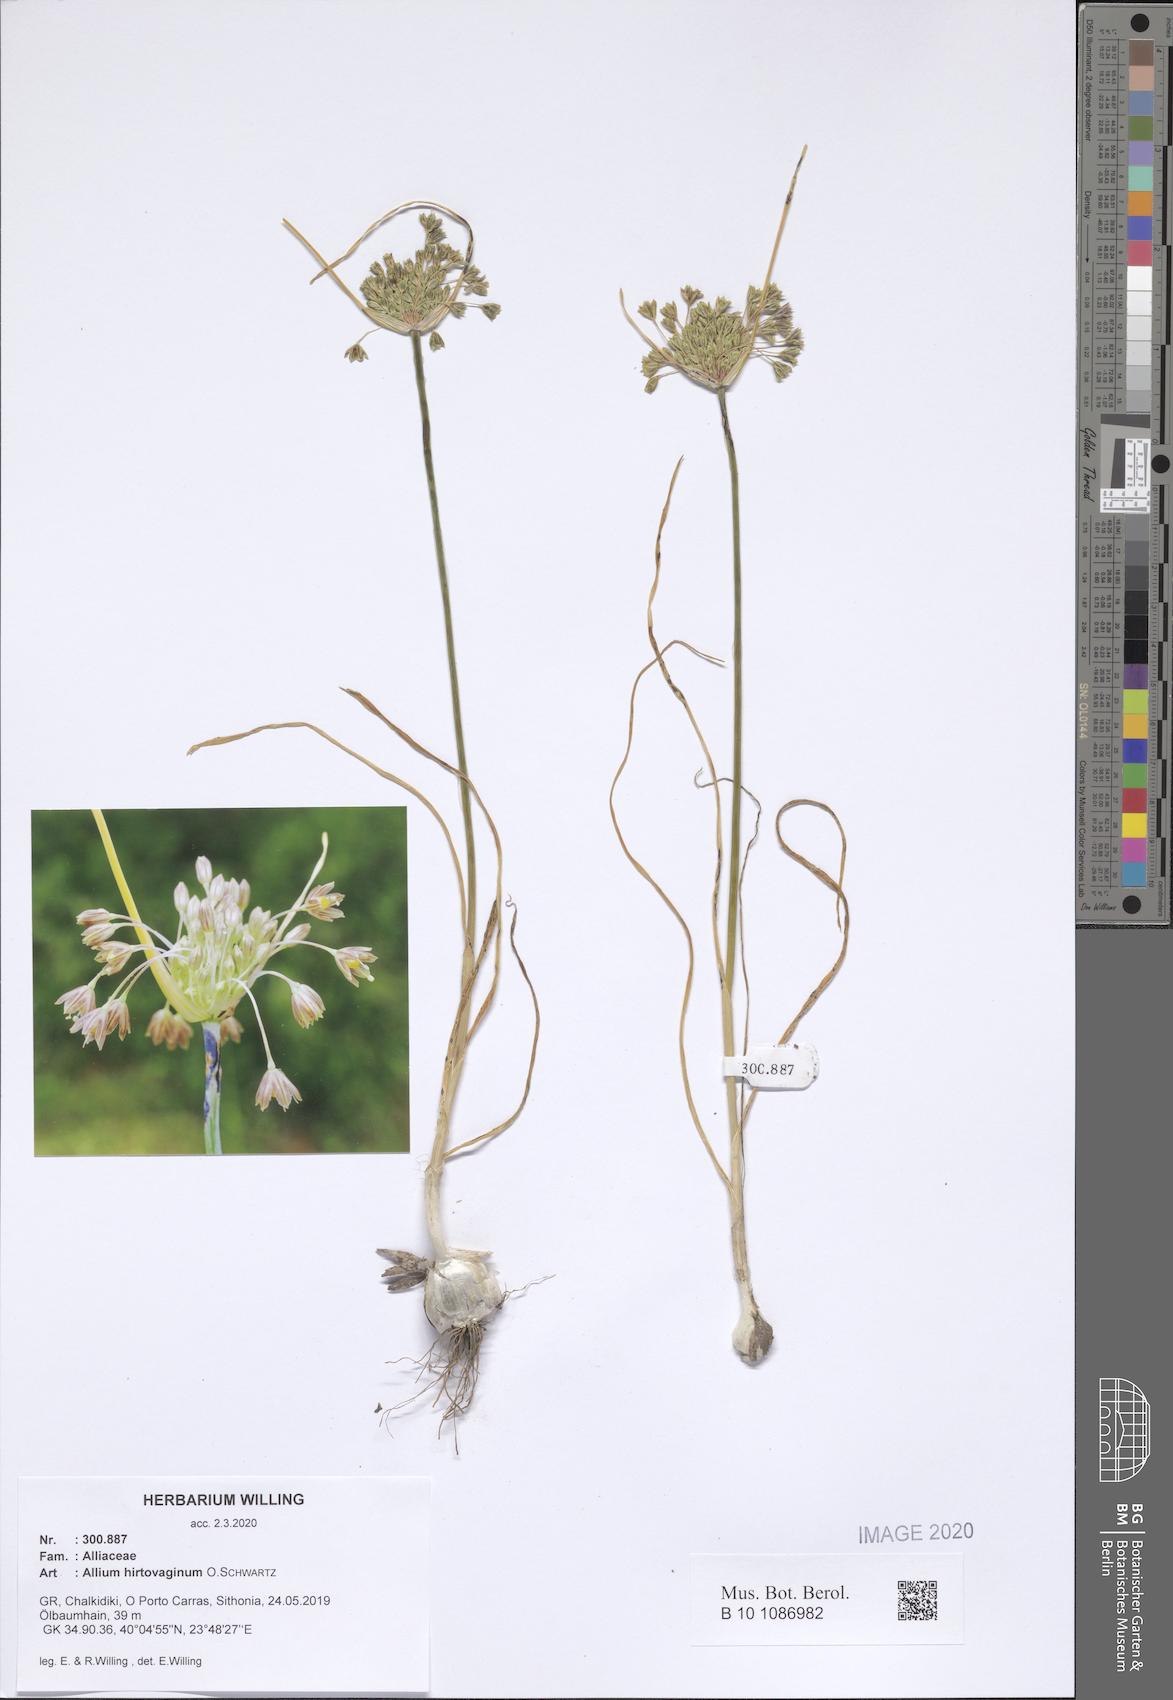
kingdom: Plantae
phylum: Tracheophyta
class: Liliopsida
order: Asparagales
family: Amaryllidaceae
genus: Allium
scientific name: Allium hirtovaginum
